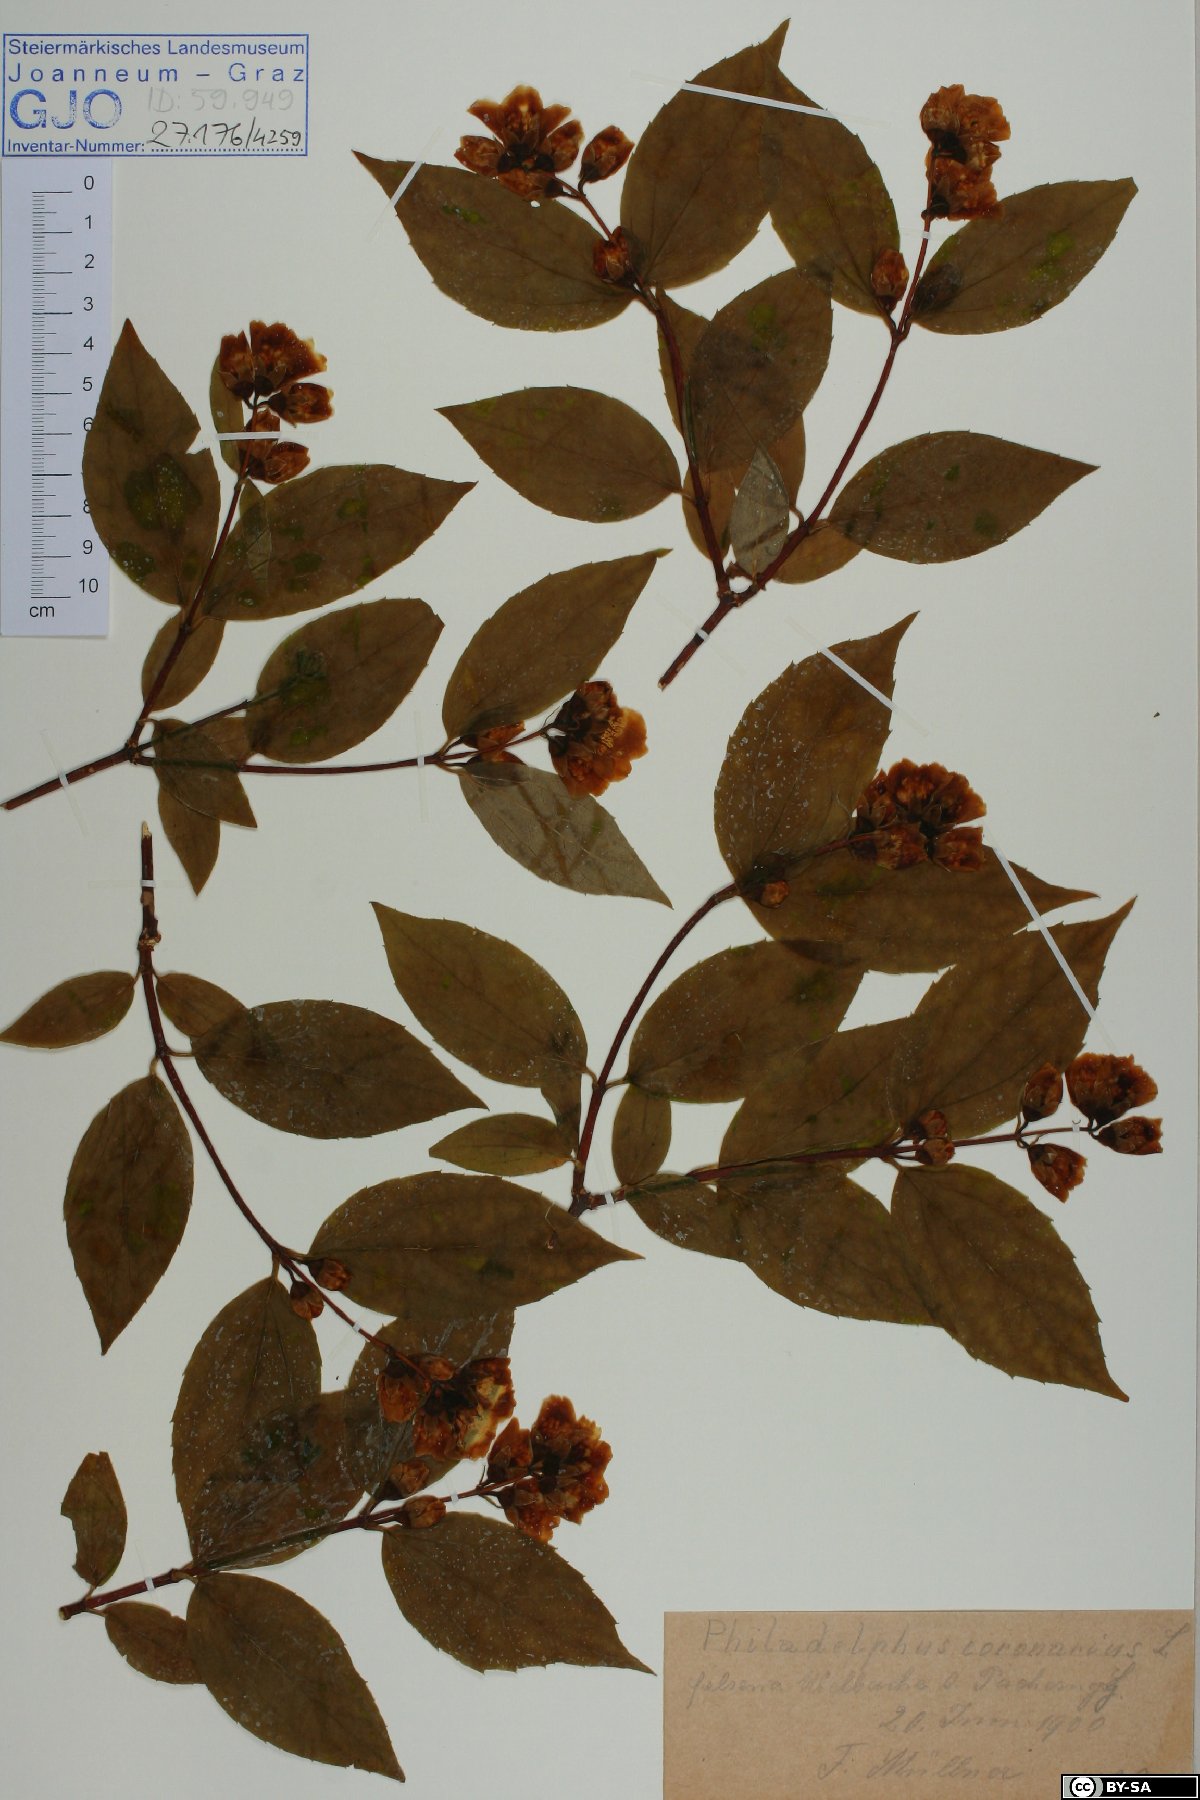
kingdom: Plantae
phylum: Tracheophyta
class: Magnoliopsida
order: Cornales
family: Hydrangeaceae
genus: Philadelphus
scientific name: Philadelphus coronarius
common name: Mock orange
